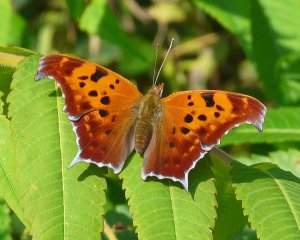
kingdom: Animalia
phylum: Arthropoda
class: Insecta
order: Lepidoptera
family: Nymphalidae
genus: Polygonia
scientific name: Polygonia interrogationis
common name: Question Mark
